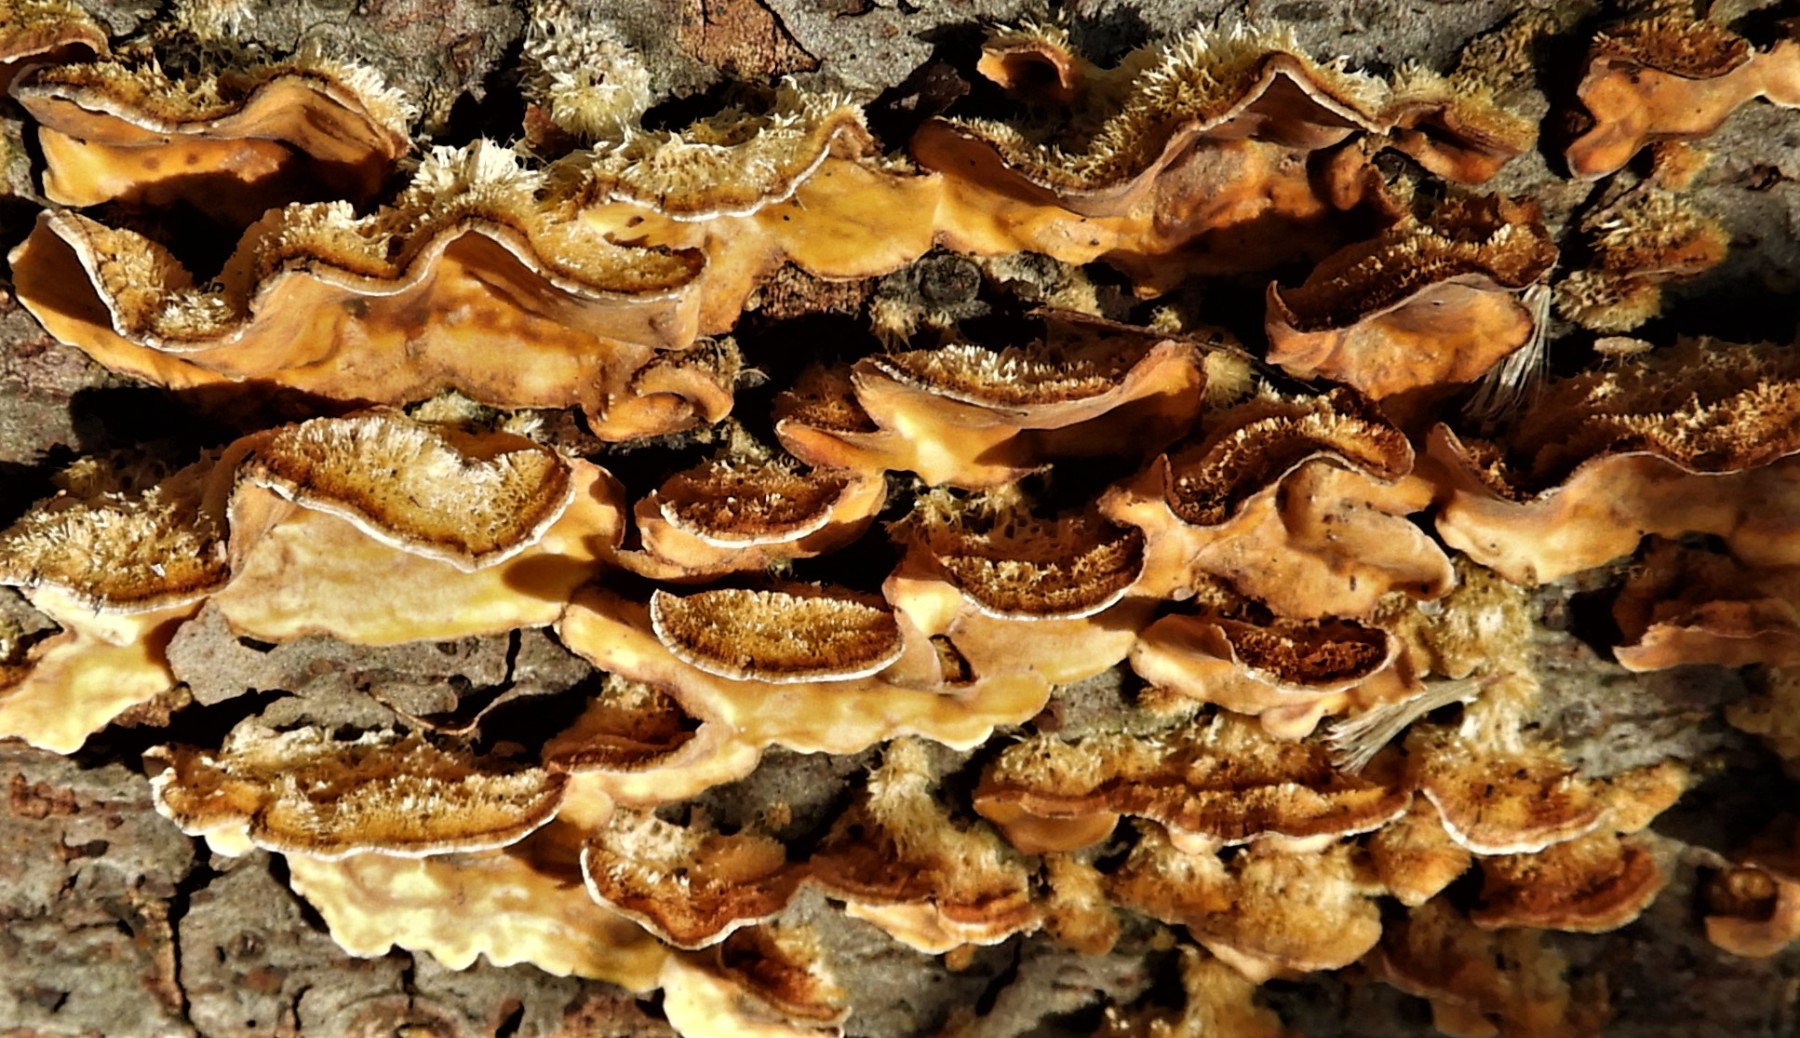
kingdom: Fungi
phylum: Basidiomycota
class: Agaricomycetes
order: Russulales
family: Stereaceae
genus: Stereum
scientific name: Stereum hirsutum
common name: håret lædersvamp
